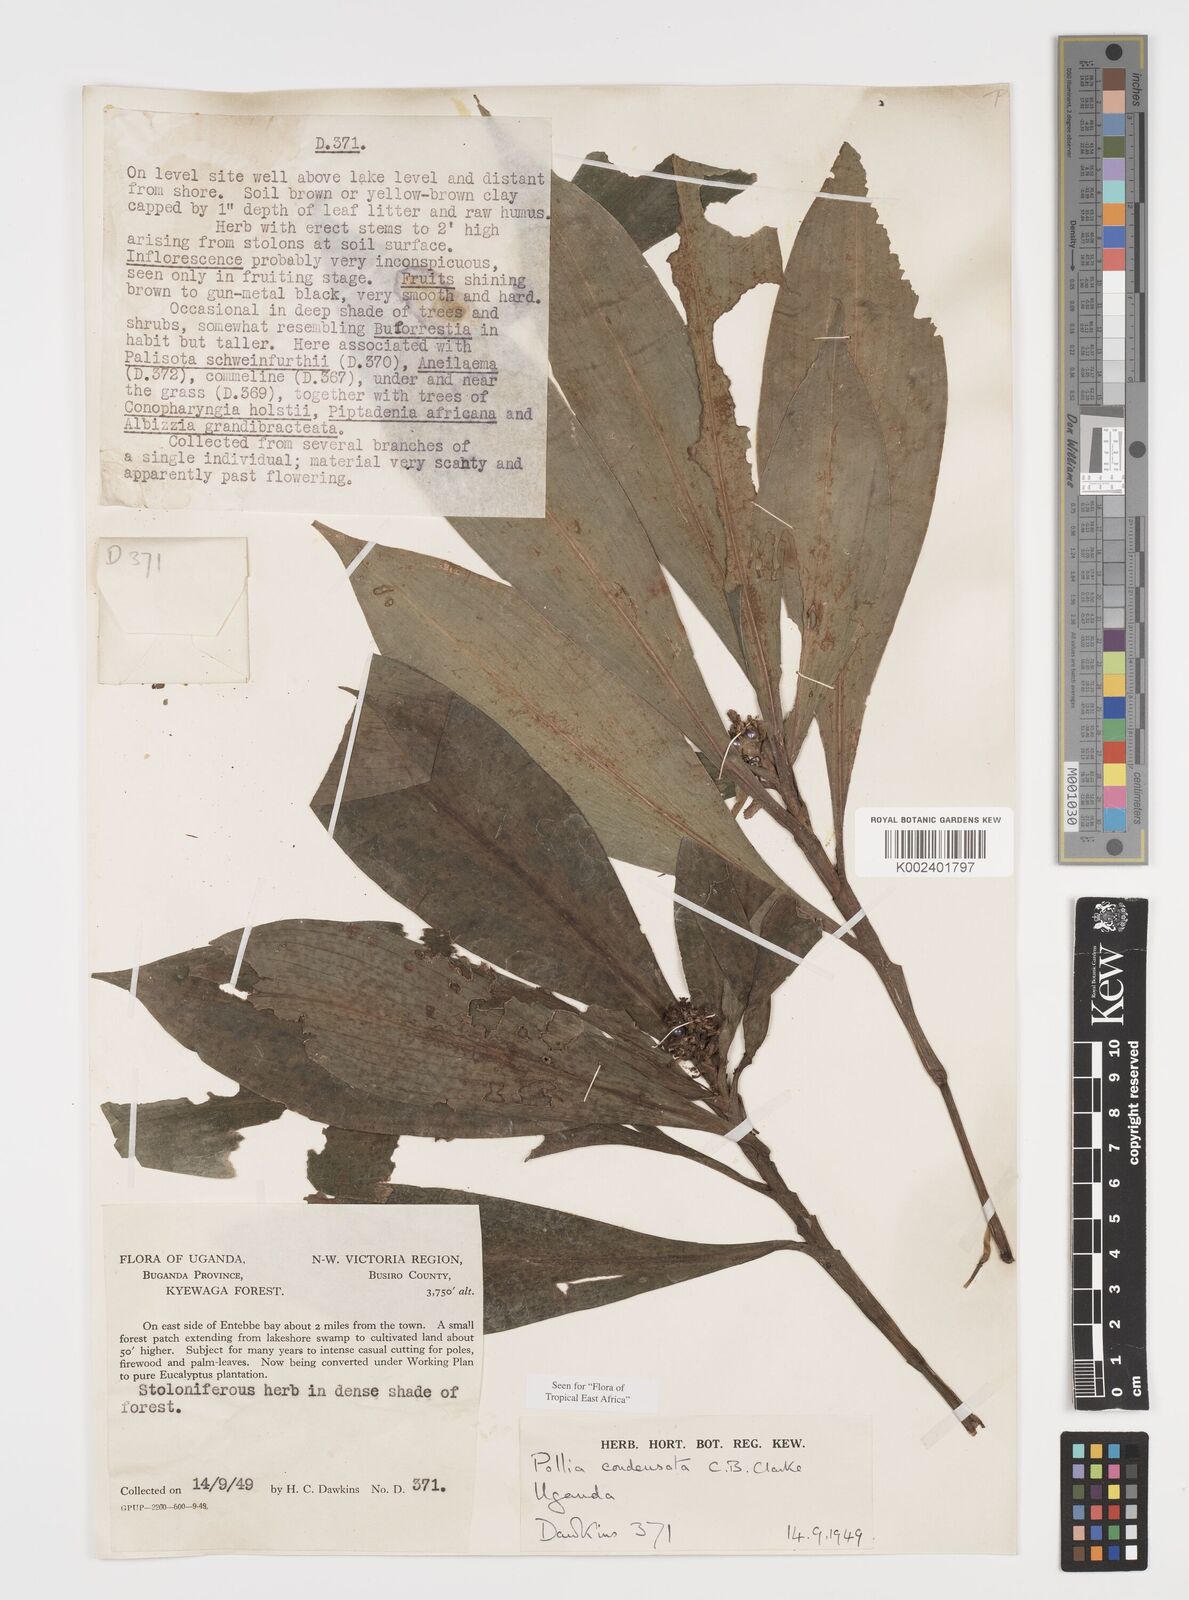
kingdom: Plantae
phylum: Tracheophyta
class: Liliopsida
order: Commelinales
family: Commelinaceae
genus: Pollia
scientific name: Pollia condensata
